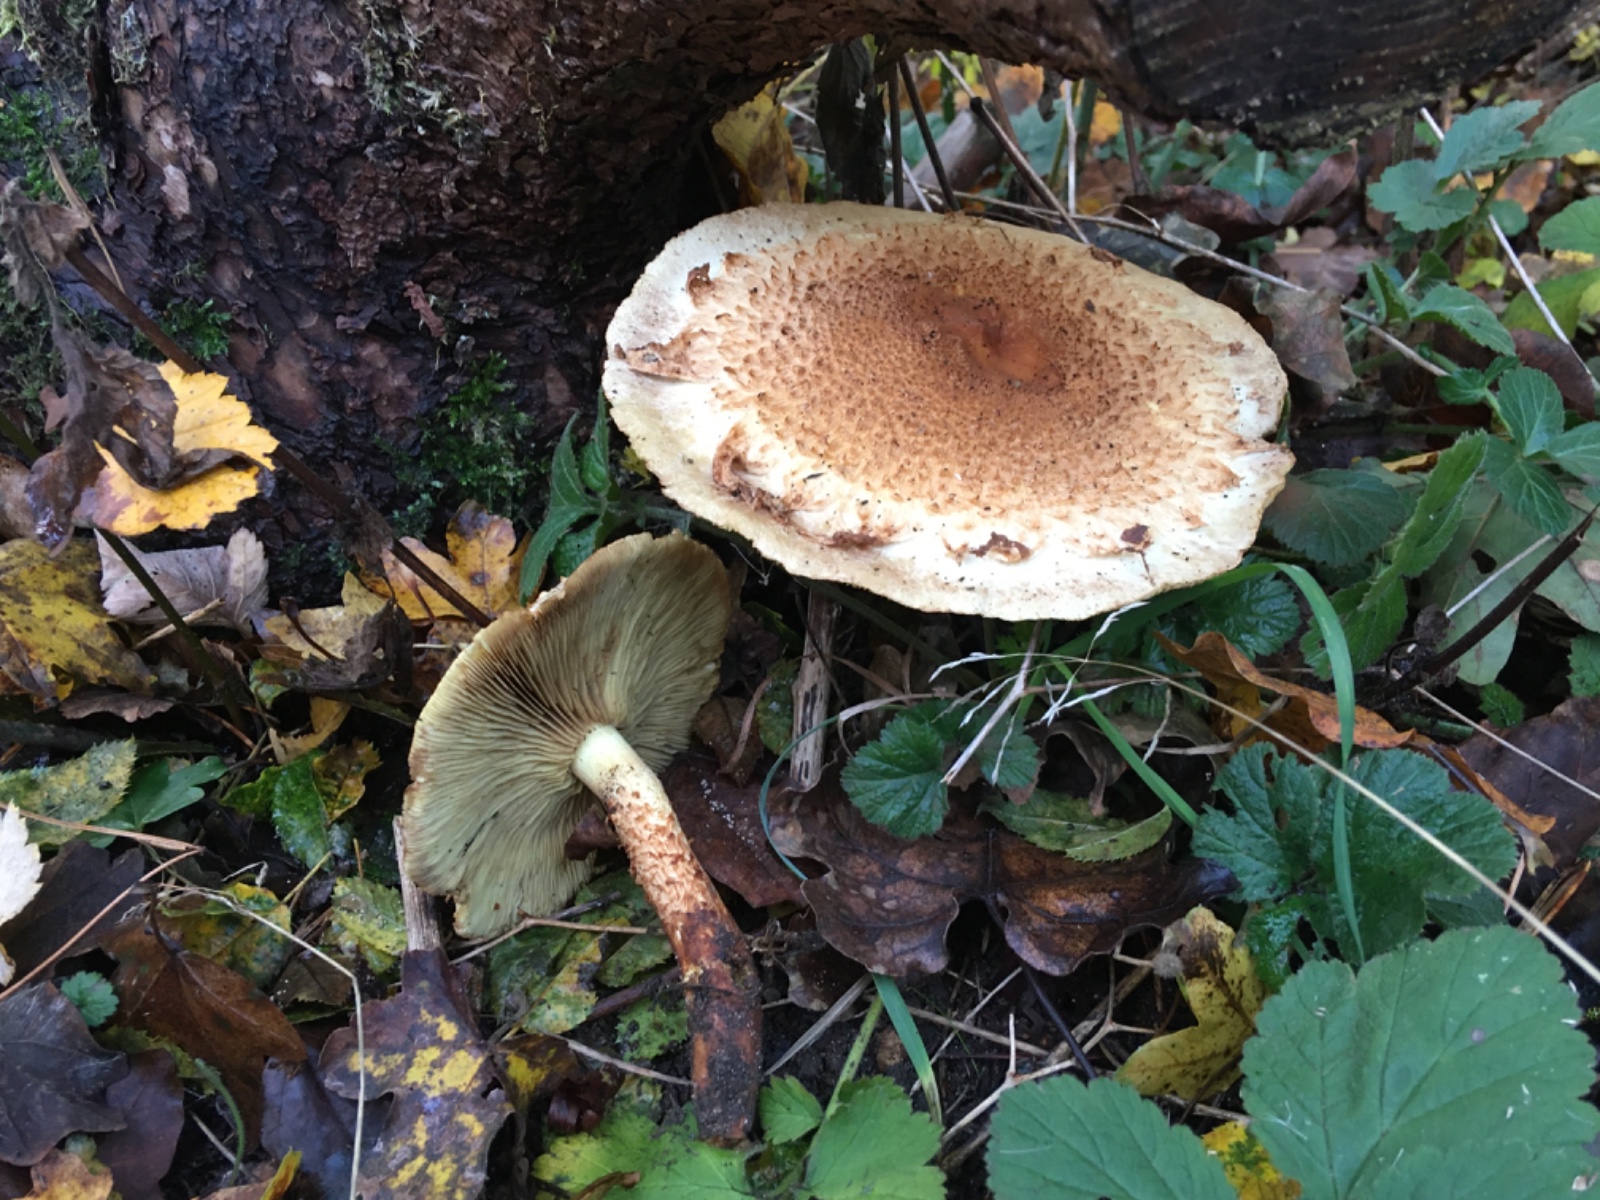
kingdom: Fungi
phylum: Basidiomycota
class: Agaricomycetes
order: Agaricales
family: Strophariaceae
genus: Pholiota
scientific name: Pholiota squarrosa
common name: krumskællet skælhat
